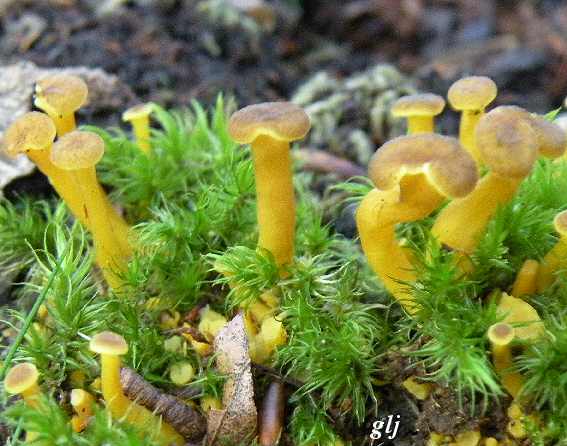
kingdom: Fungi
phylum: Basidiomycota
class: Agaricomycetes
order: Cantharellales
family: Hydnaceae
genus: Craterellus
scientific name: Craterellus tubaeformis
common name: tragt-kantarel
